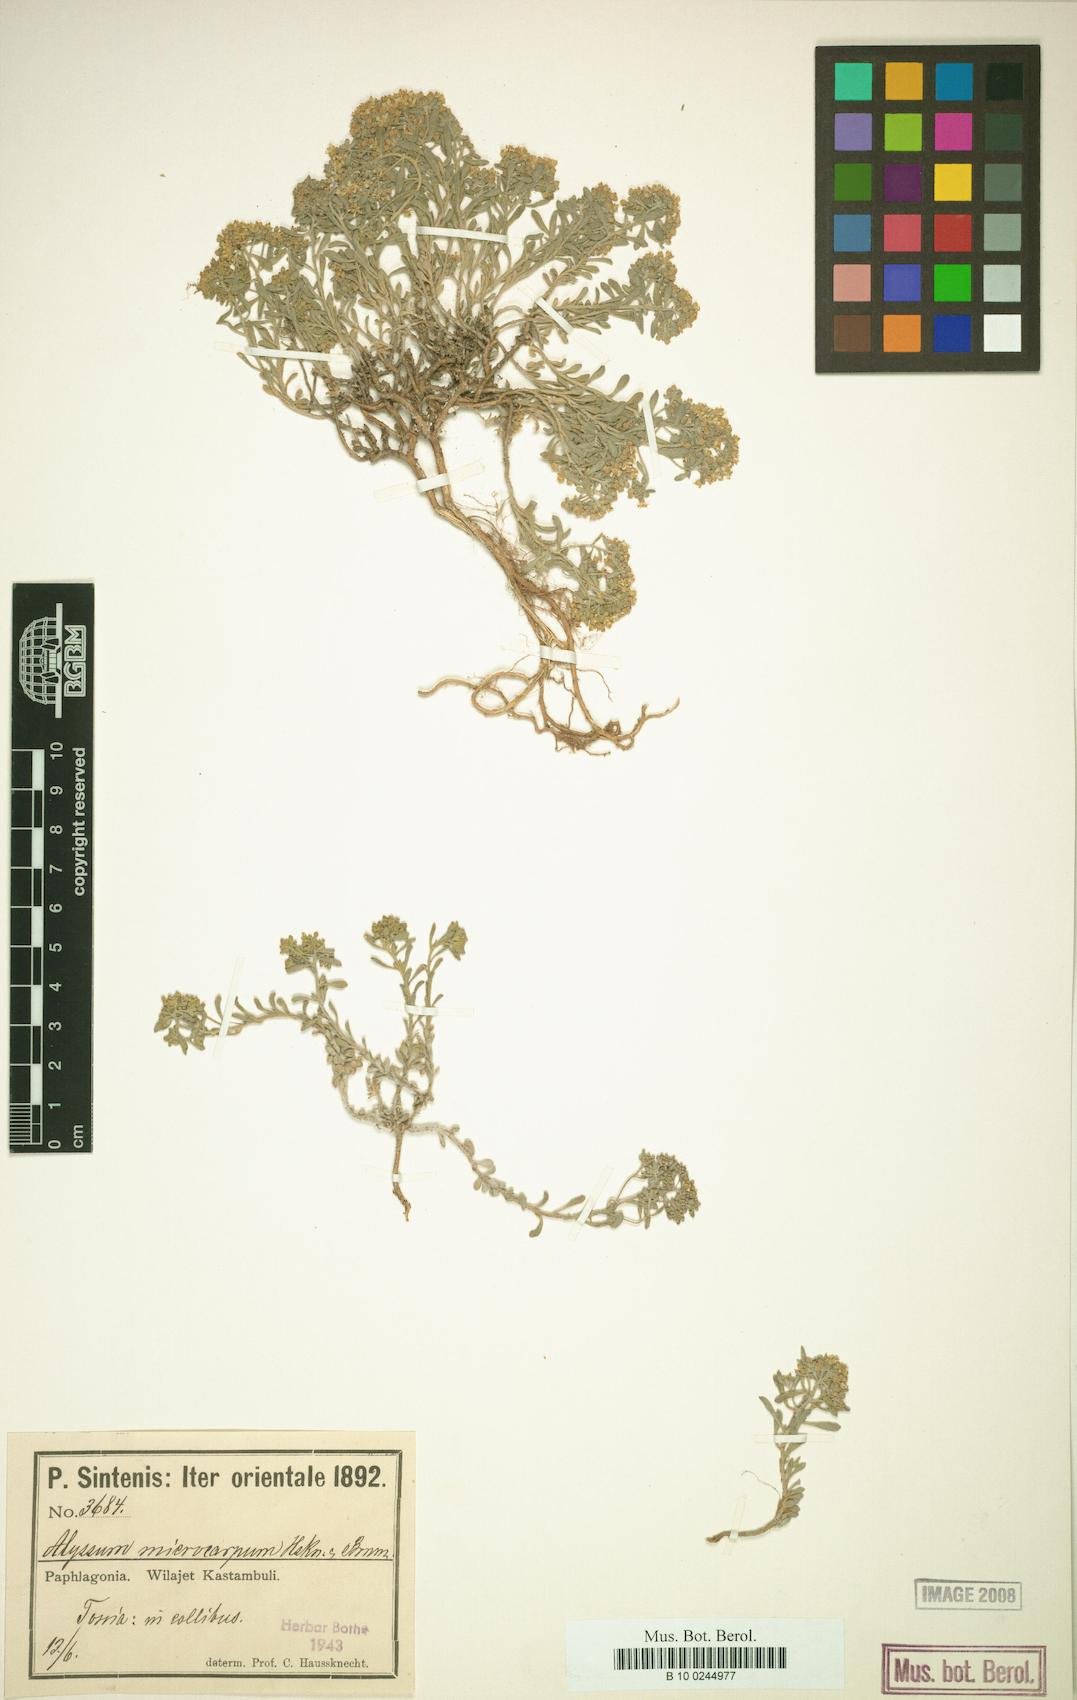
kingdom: Plantae
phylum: Tracheophyta
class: Magnoliopsida
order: Brassicales
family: Brassicaceae
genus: Aurinia
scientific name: Aurinia petraea
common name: Goldentuft
